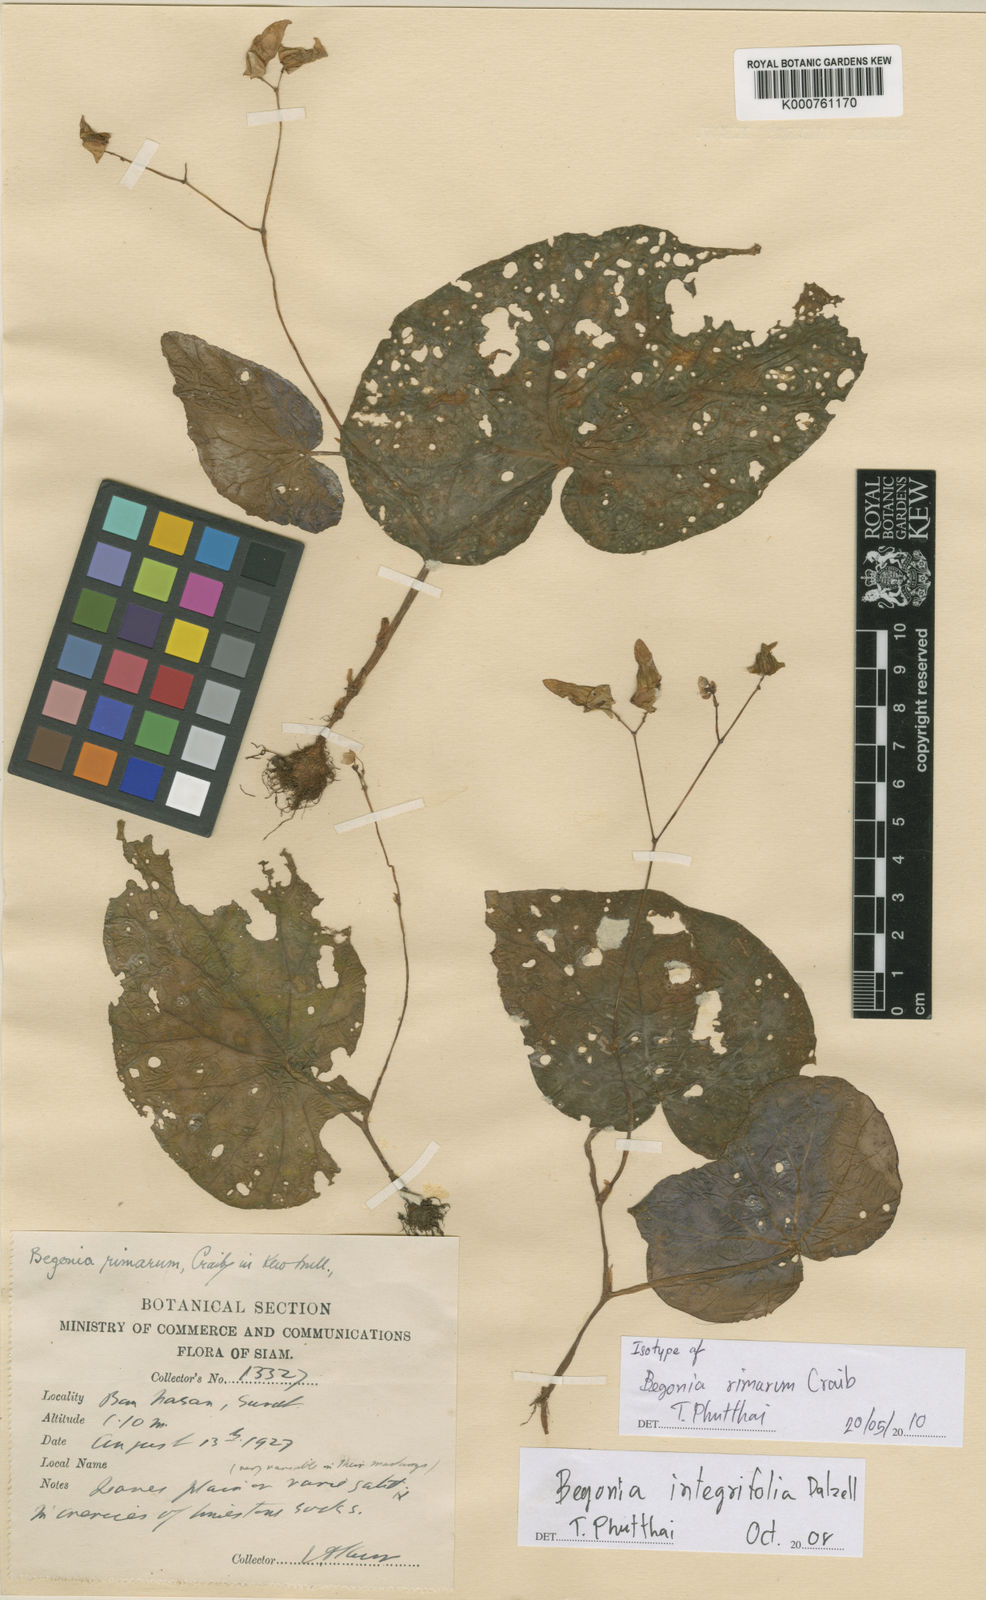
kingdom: Plantae
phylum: Tracheophyta
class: Magnoliopsida
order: Cucurbitales
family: Begoniaceae
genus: Begonia
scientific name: Begonia integrifolia
